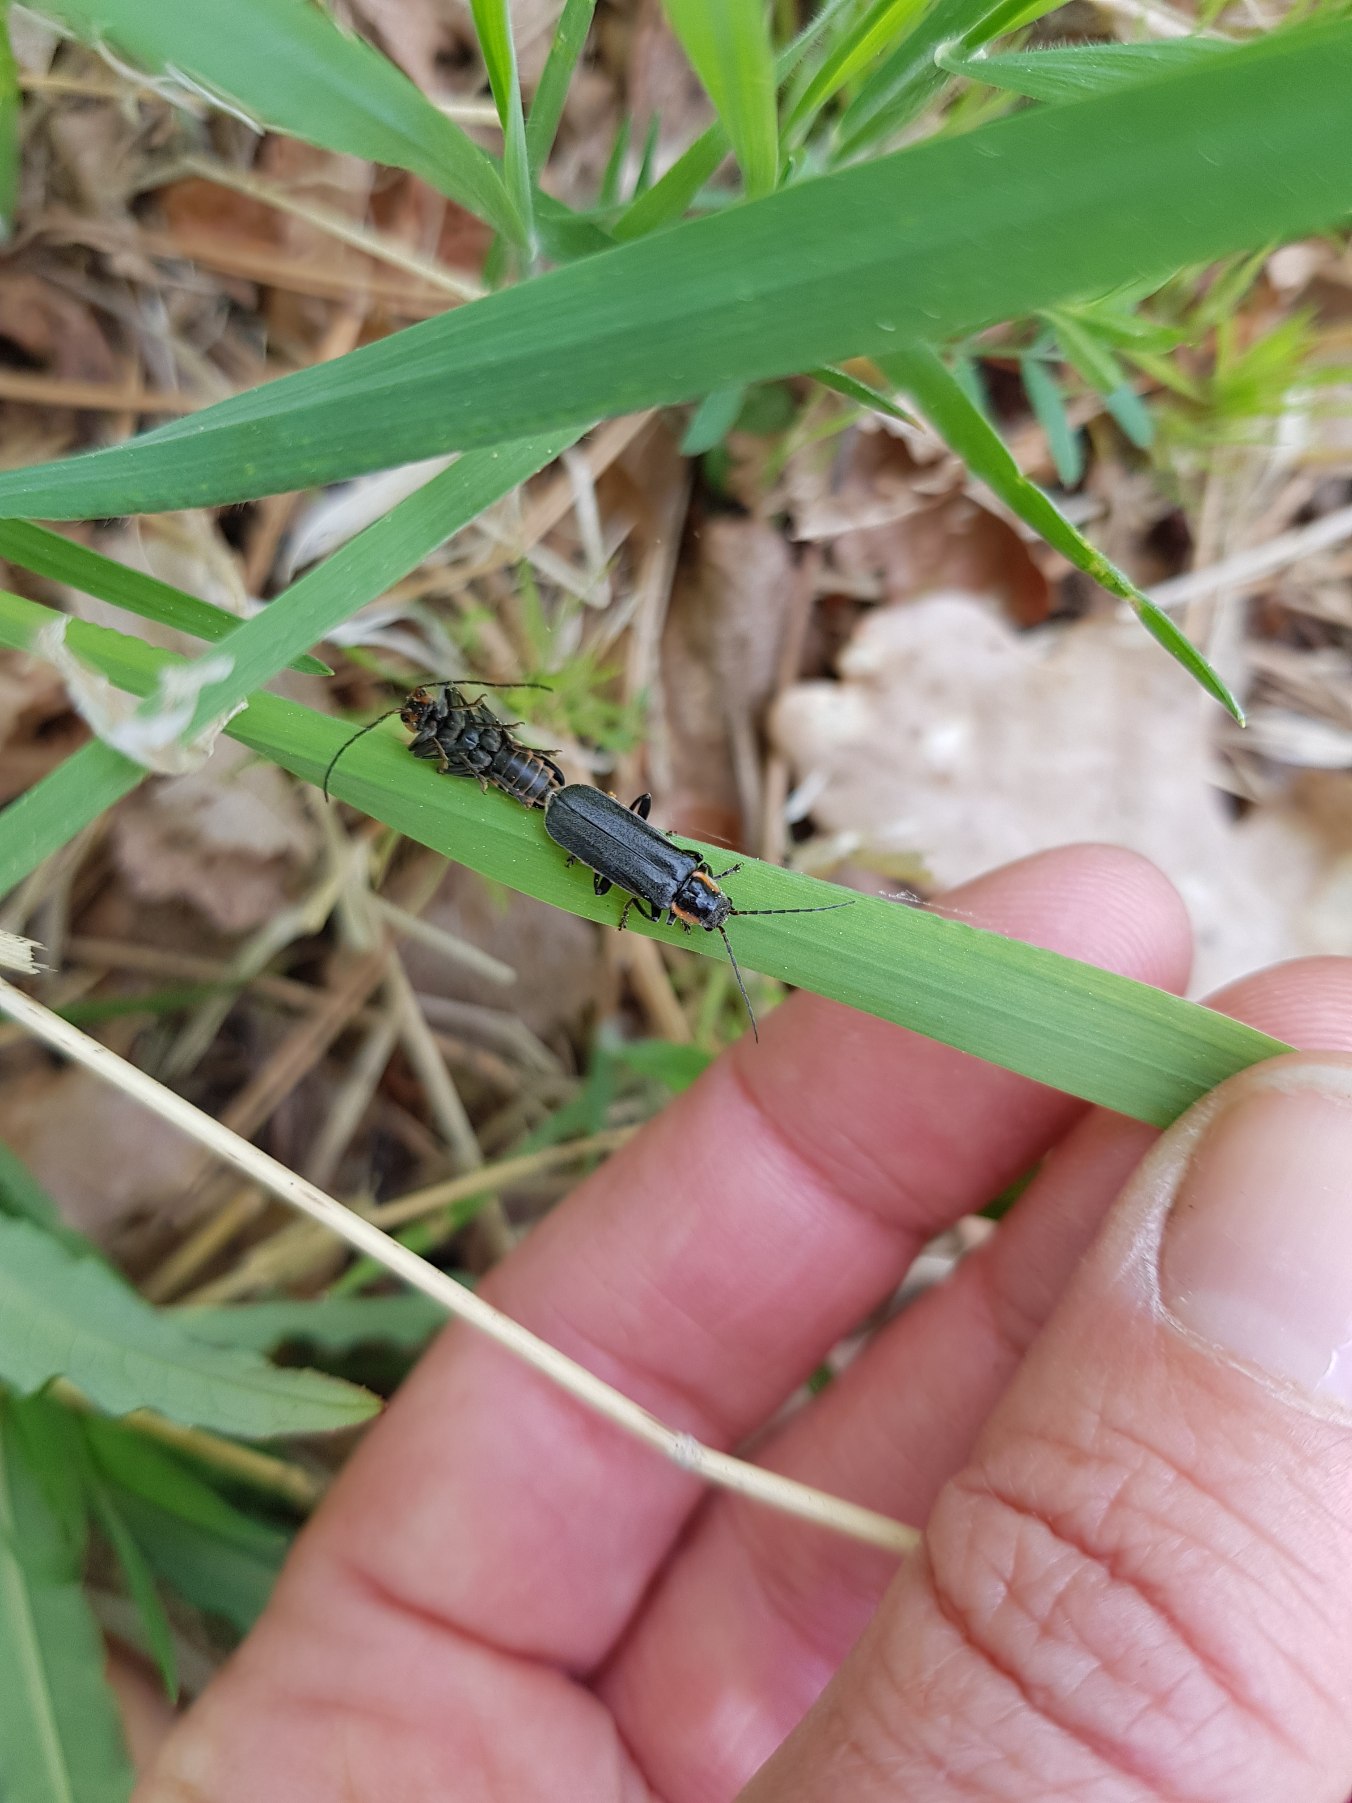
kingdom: Animalia
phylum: Arthropoda
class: Insecta
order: Coleoptera
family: Cantharidae
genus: Cantharis
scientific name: Cantharis obscura
